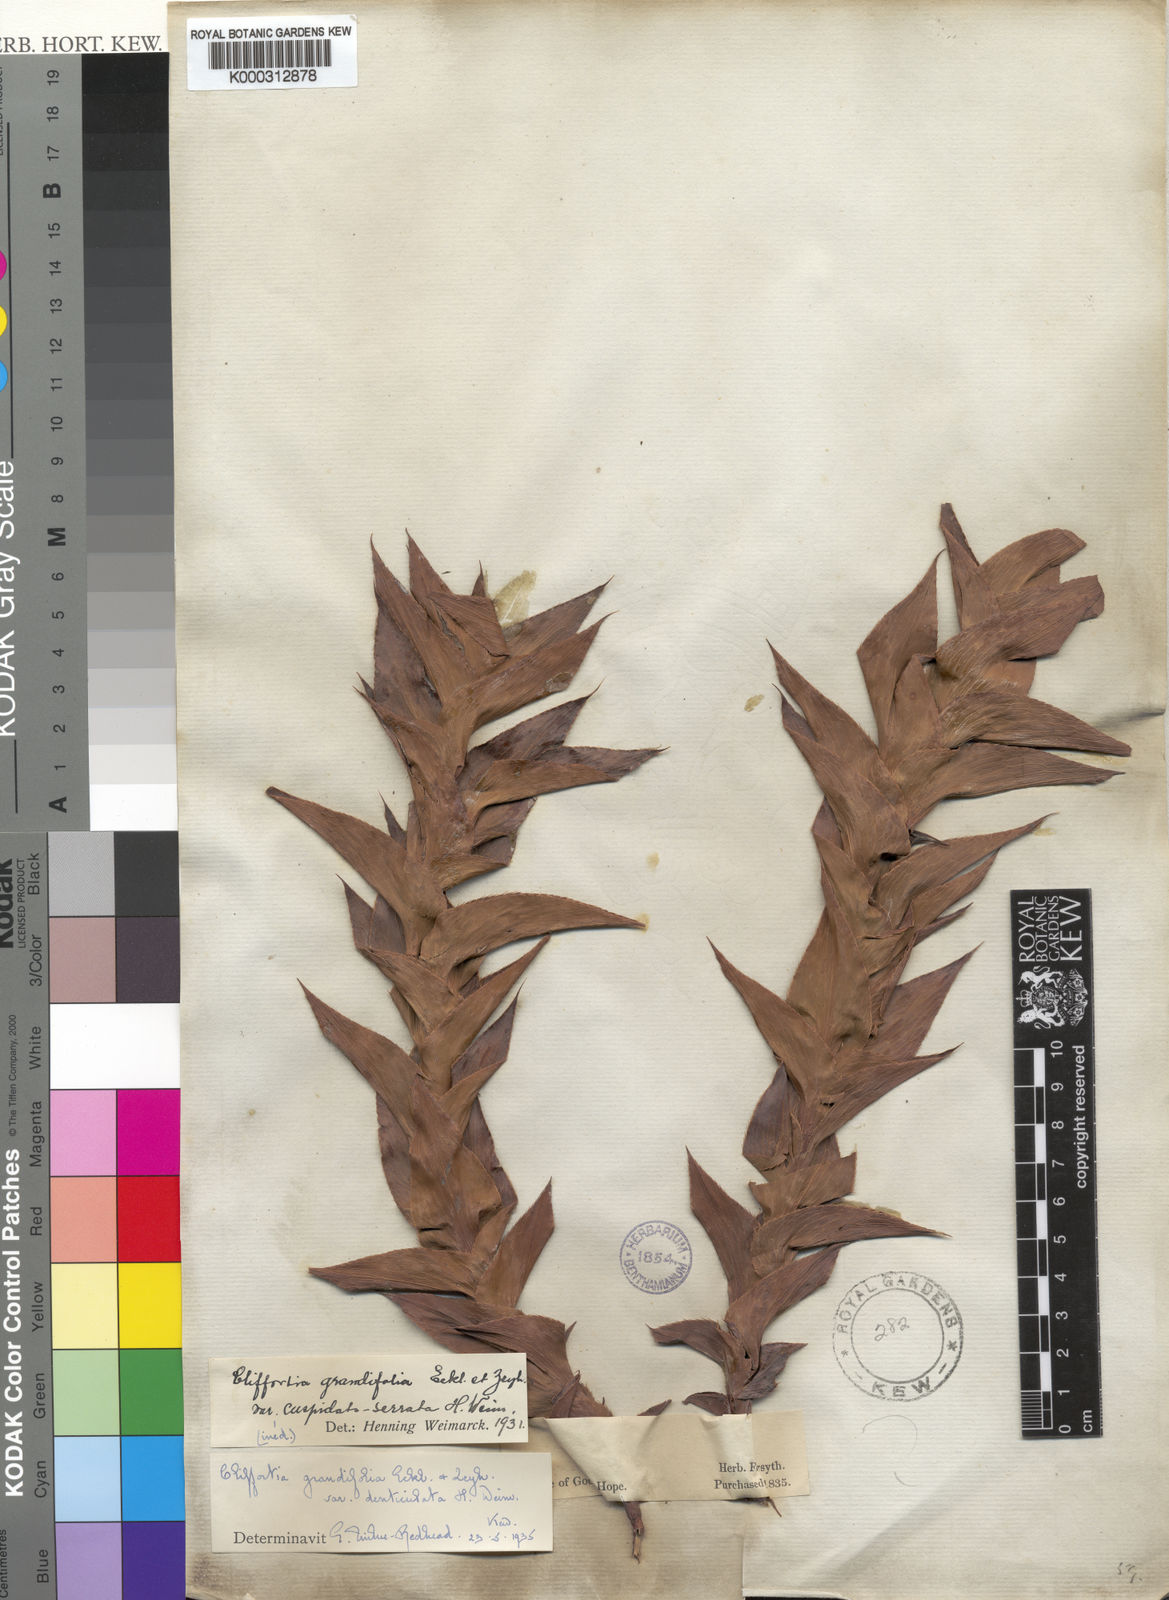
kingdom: Plantae
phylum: Tracheophyta
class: Magnoliopsida
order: Rosales
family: Rosaceae
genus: Cliffortia
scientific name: Cliffortia denticulata
